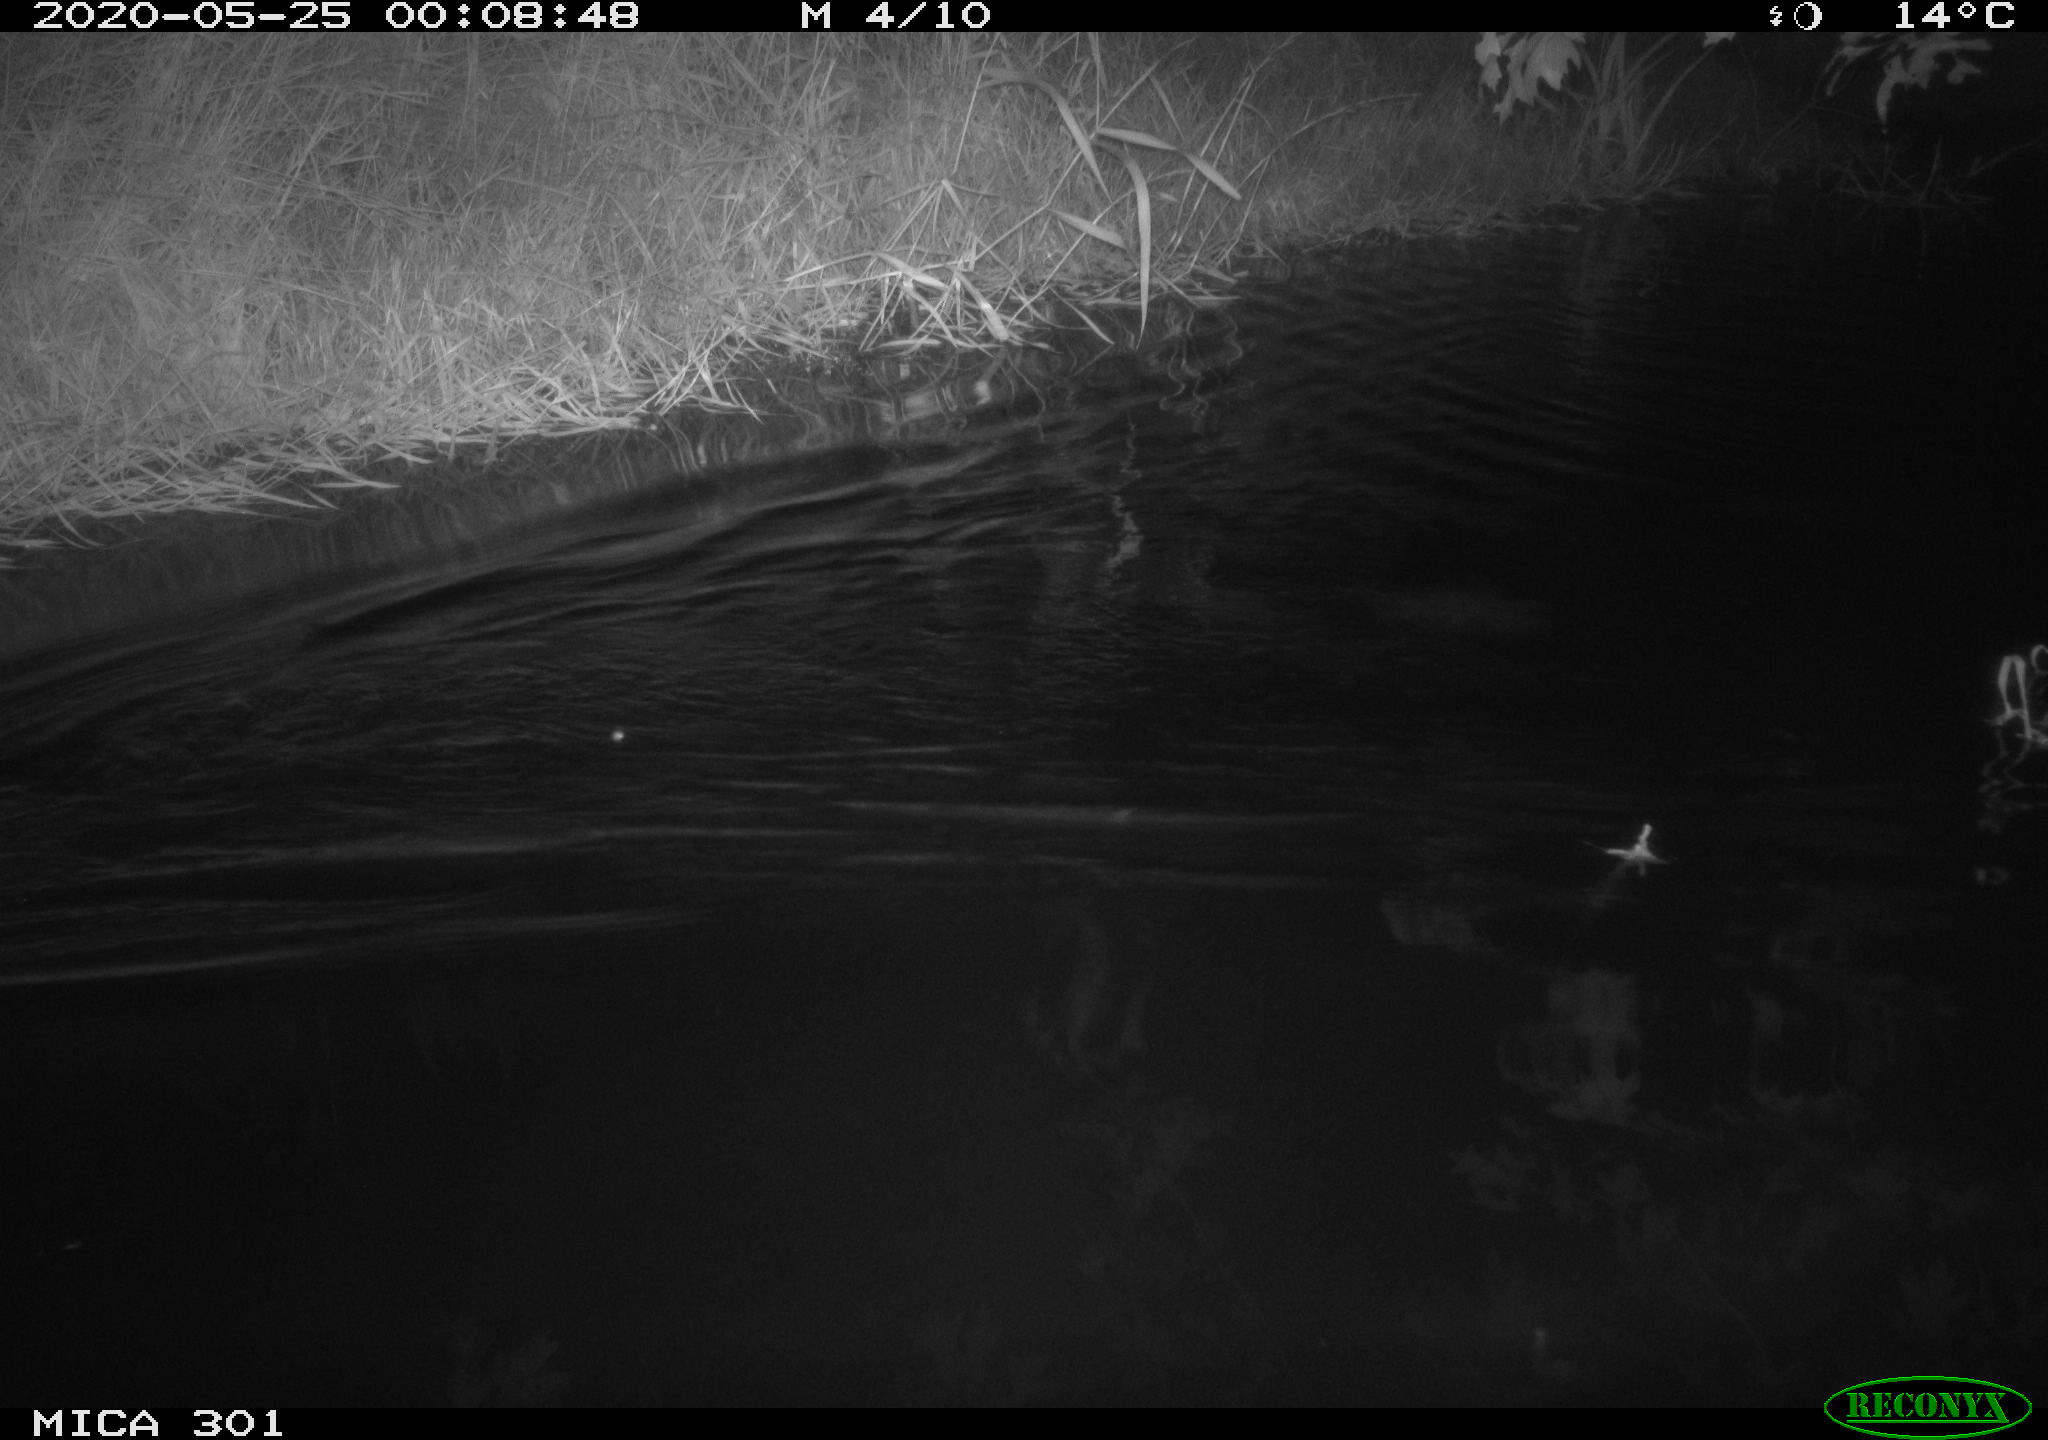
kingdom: Animalia
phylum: Chordata
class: Mammalia
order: Rodentia
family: Castoridae
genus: Castor
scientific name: Castor fiber
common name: Eurasian beaver
